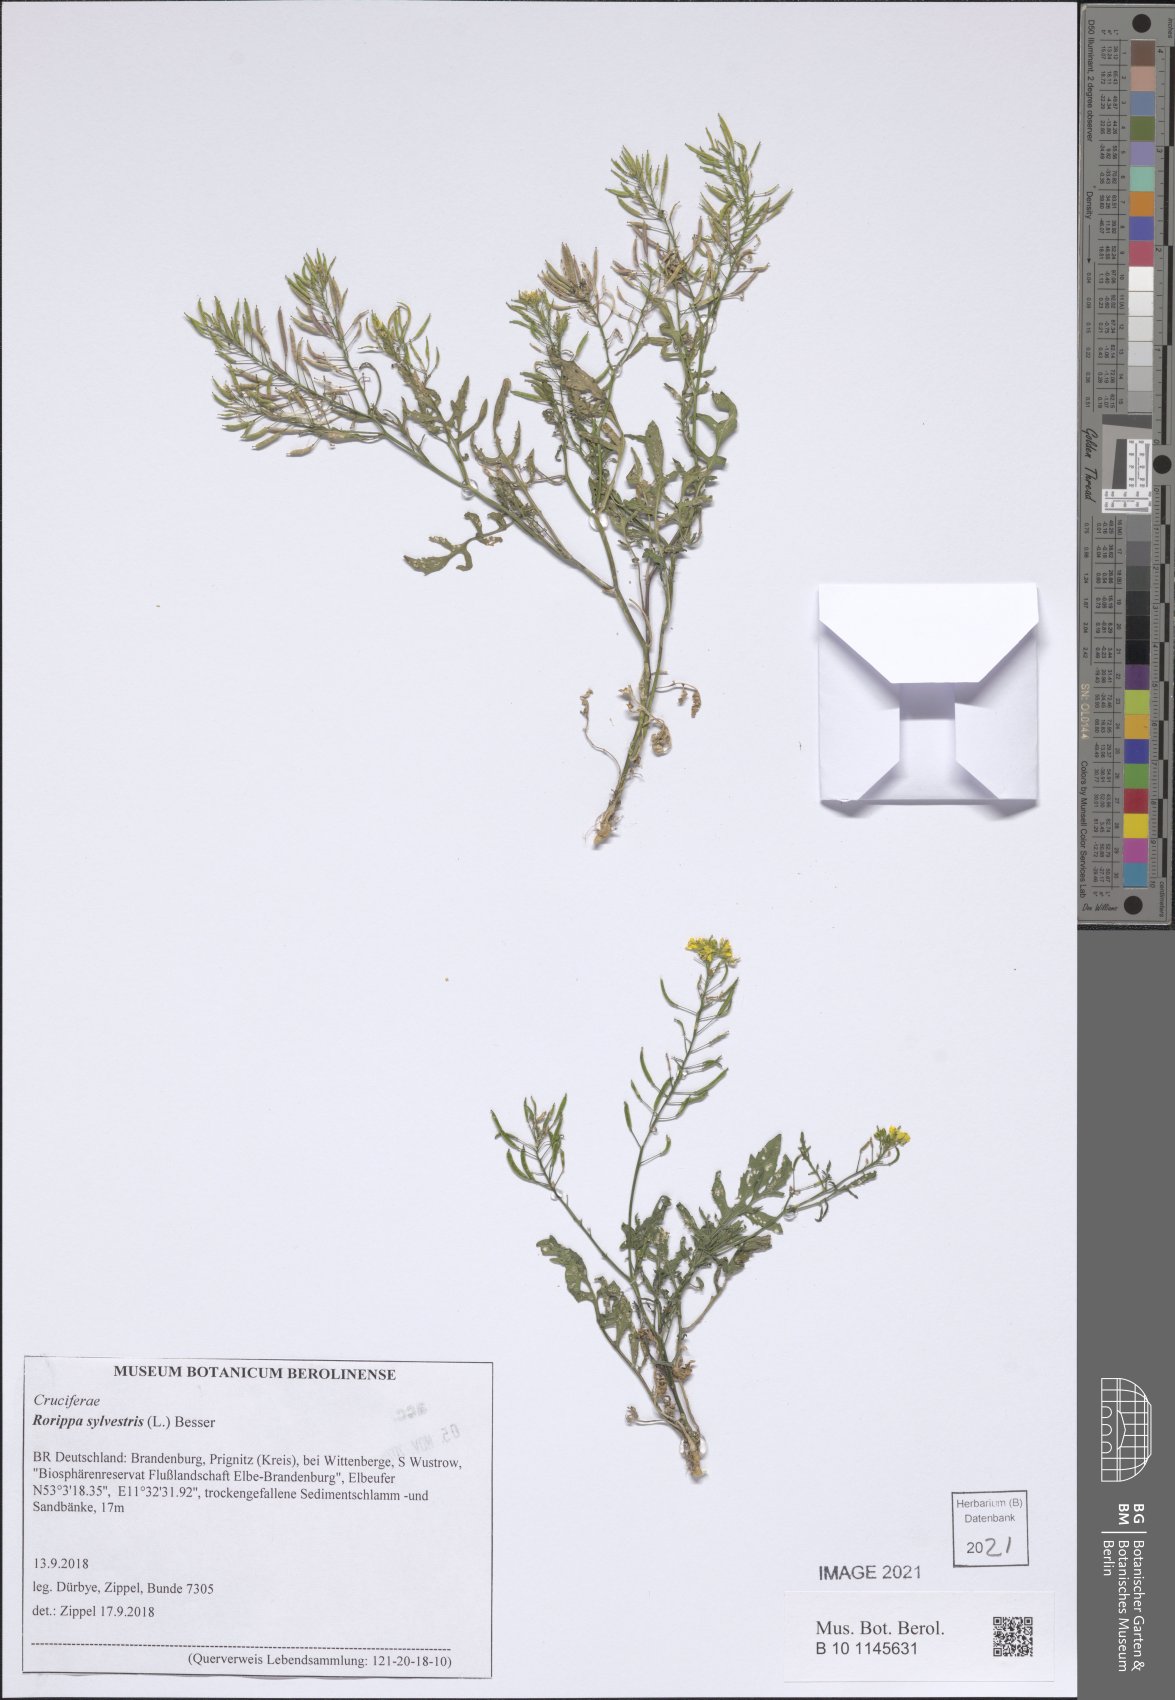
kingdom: Plantae
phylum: Tracheophyta
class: Magnoliopsida
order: Brassicales
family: Brassicaceae
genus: Rorippa
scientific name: Rorippa sylvestris
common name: Creeping yellowcress
